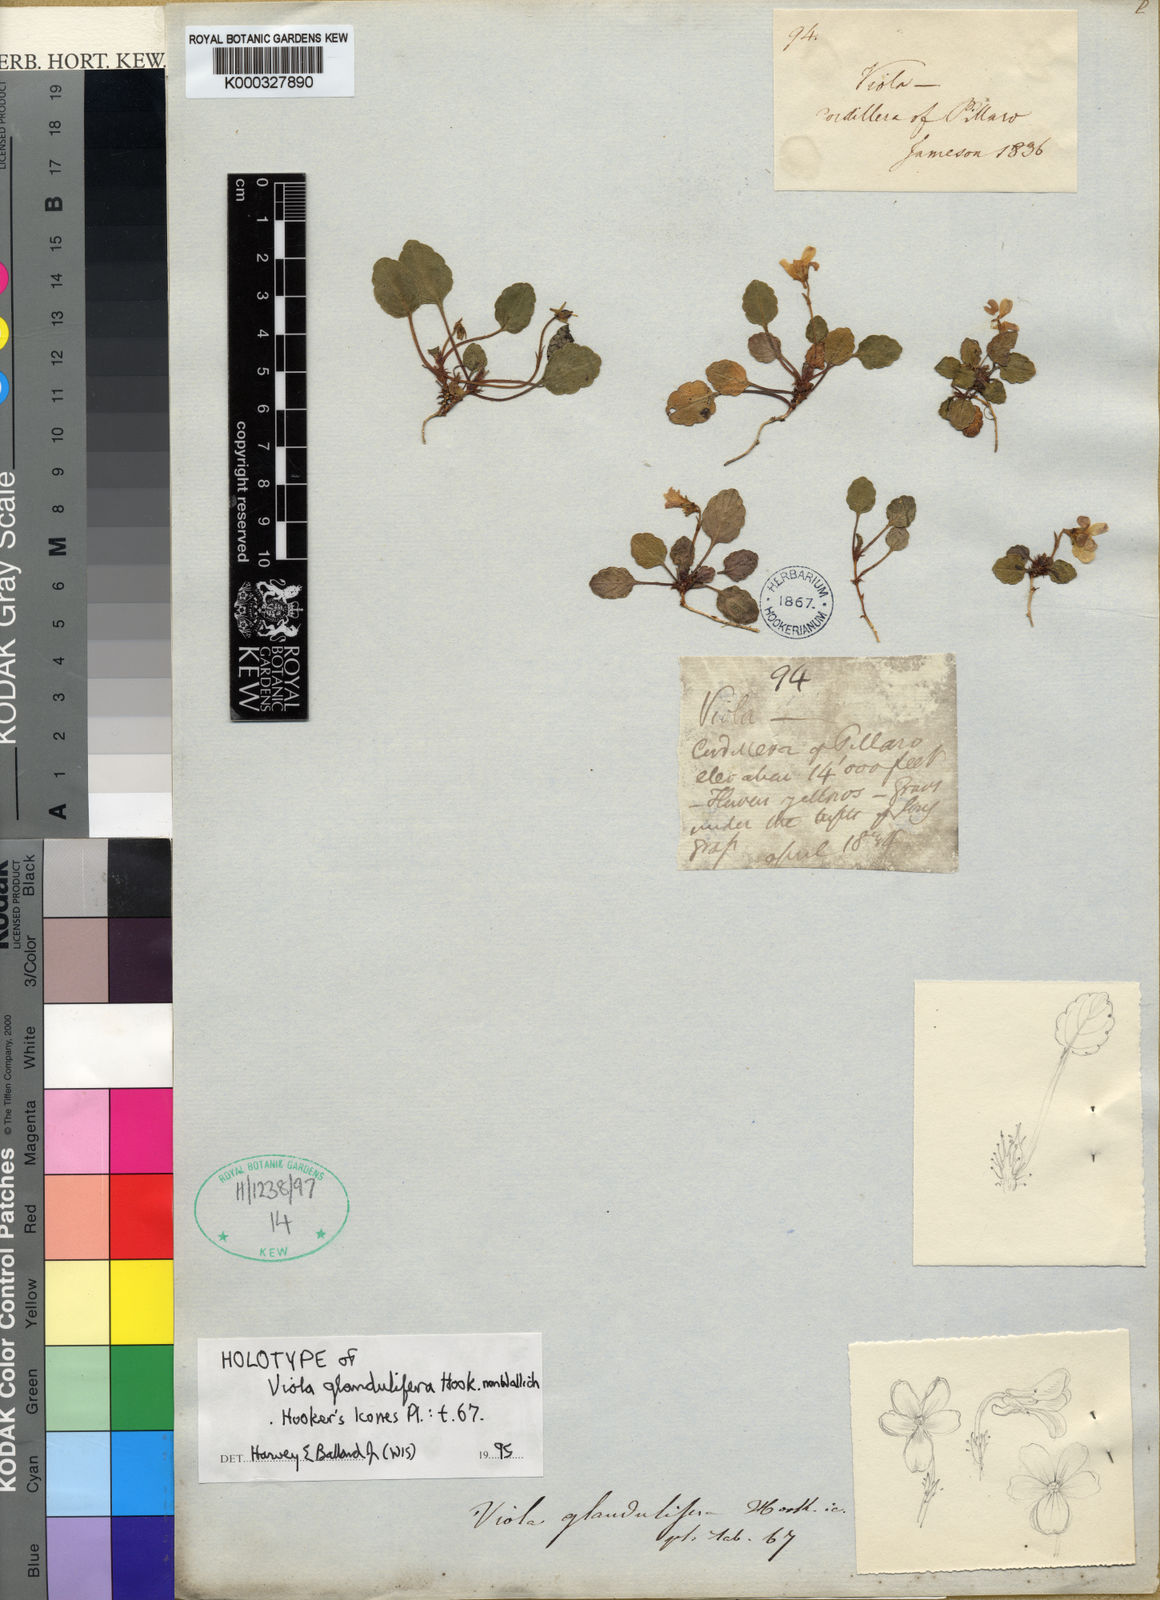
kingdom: Plantae
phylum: Tracheophyta
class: Magnoliopsida
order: Malpighiales
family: Violaceae
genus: Viola
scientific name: Viola stuebelii
